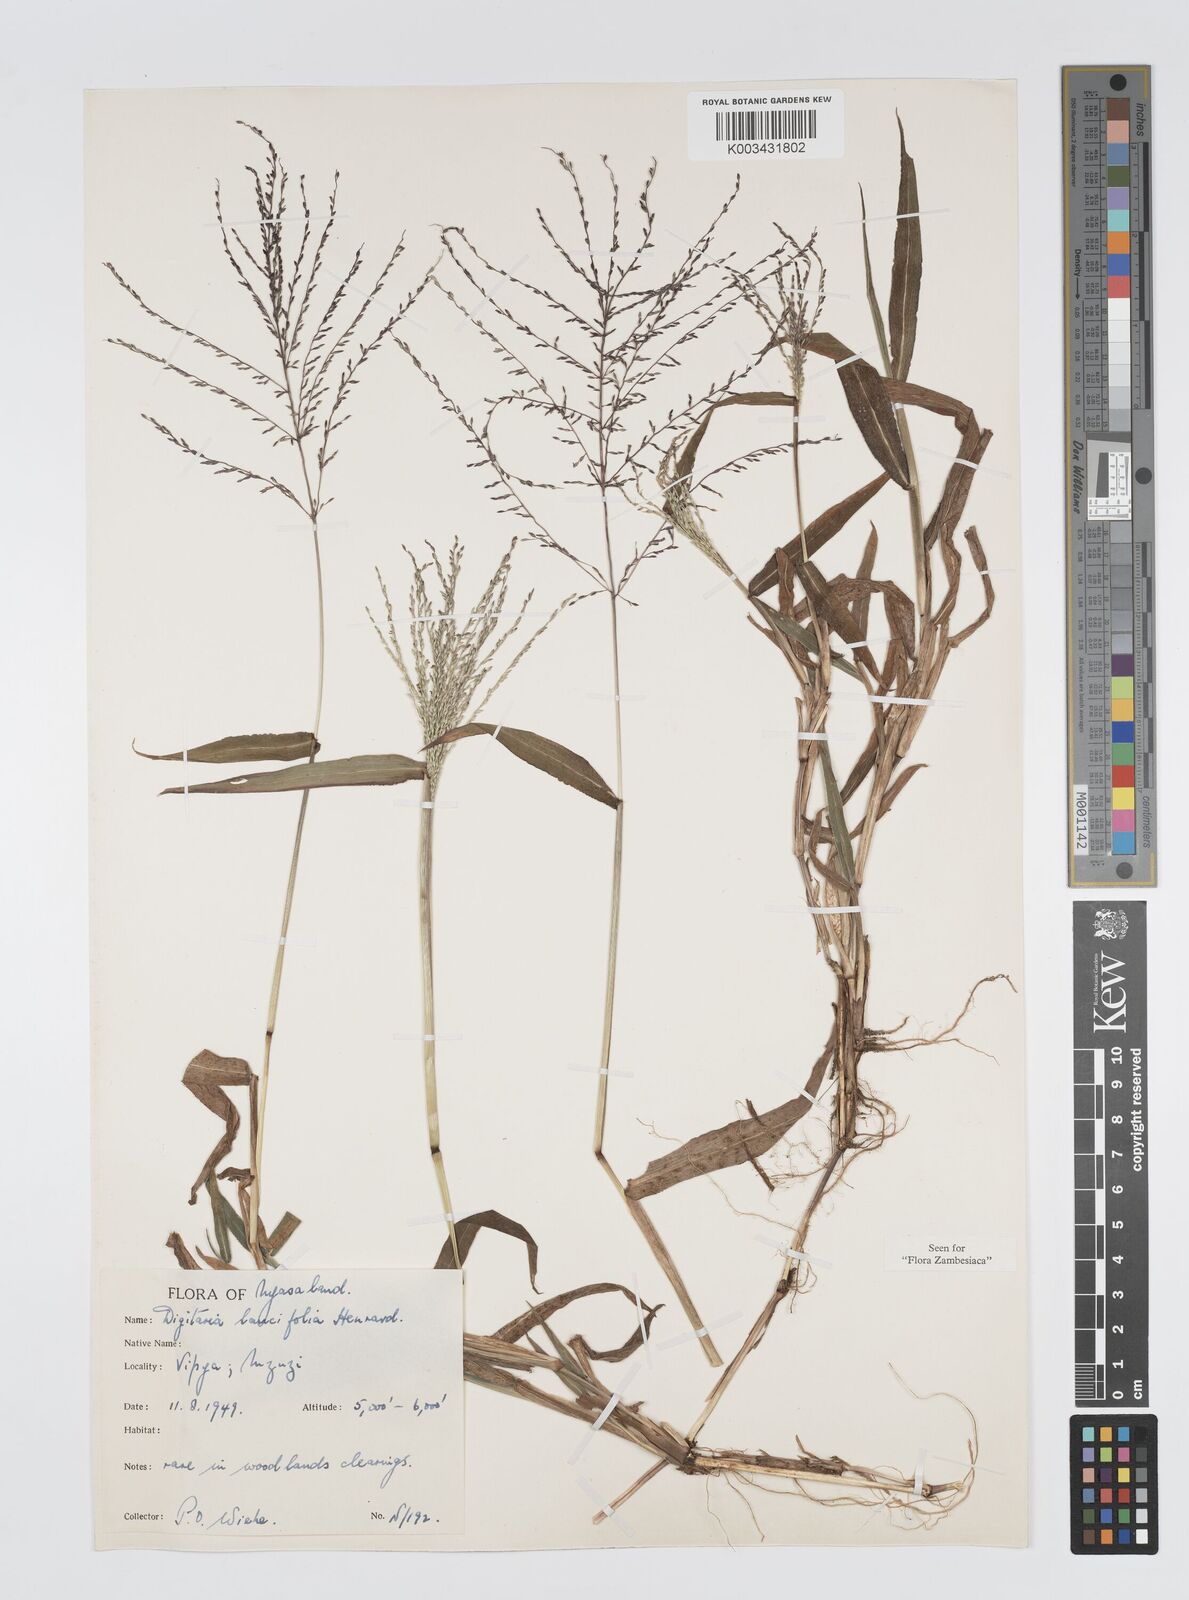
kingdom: Plantae
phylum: Tracheophyta
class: Liliopsida
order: Poales
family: Poaceae
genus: Digitaria
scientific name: Digitaria pearsonii
